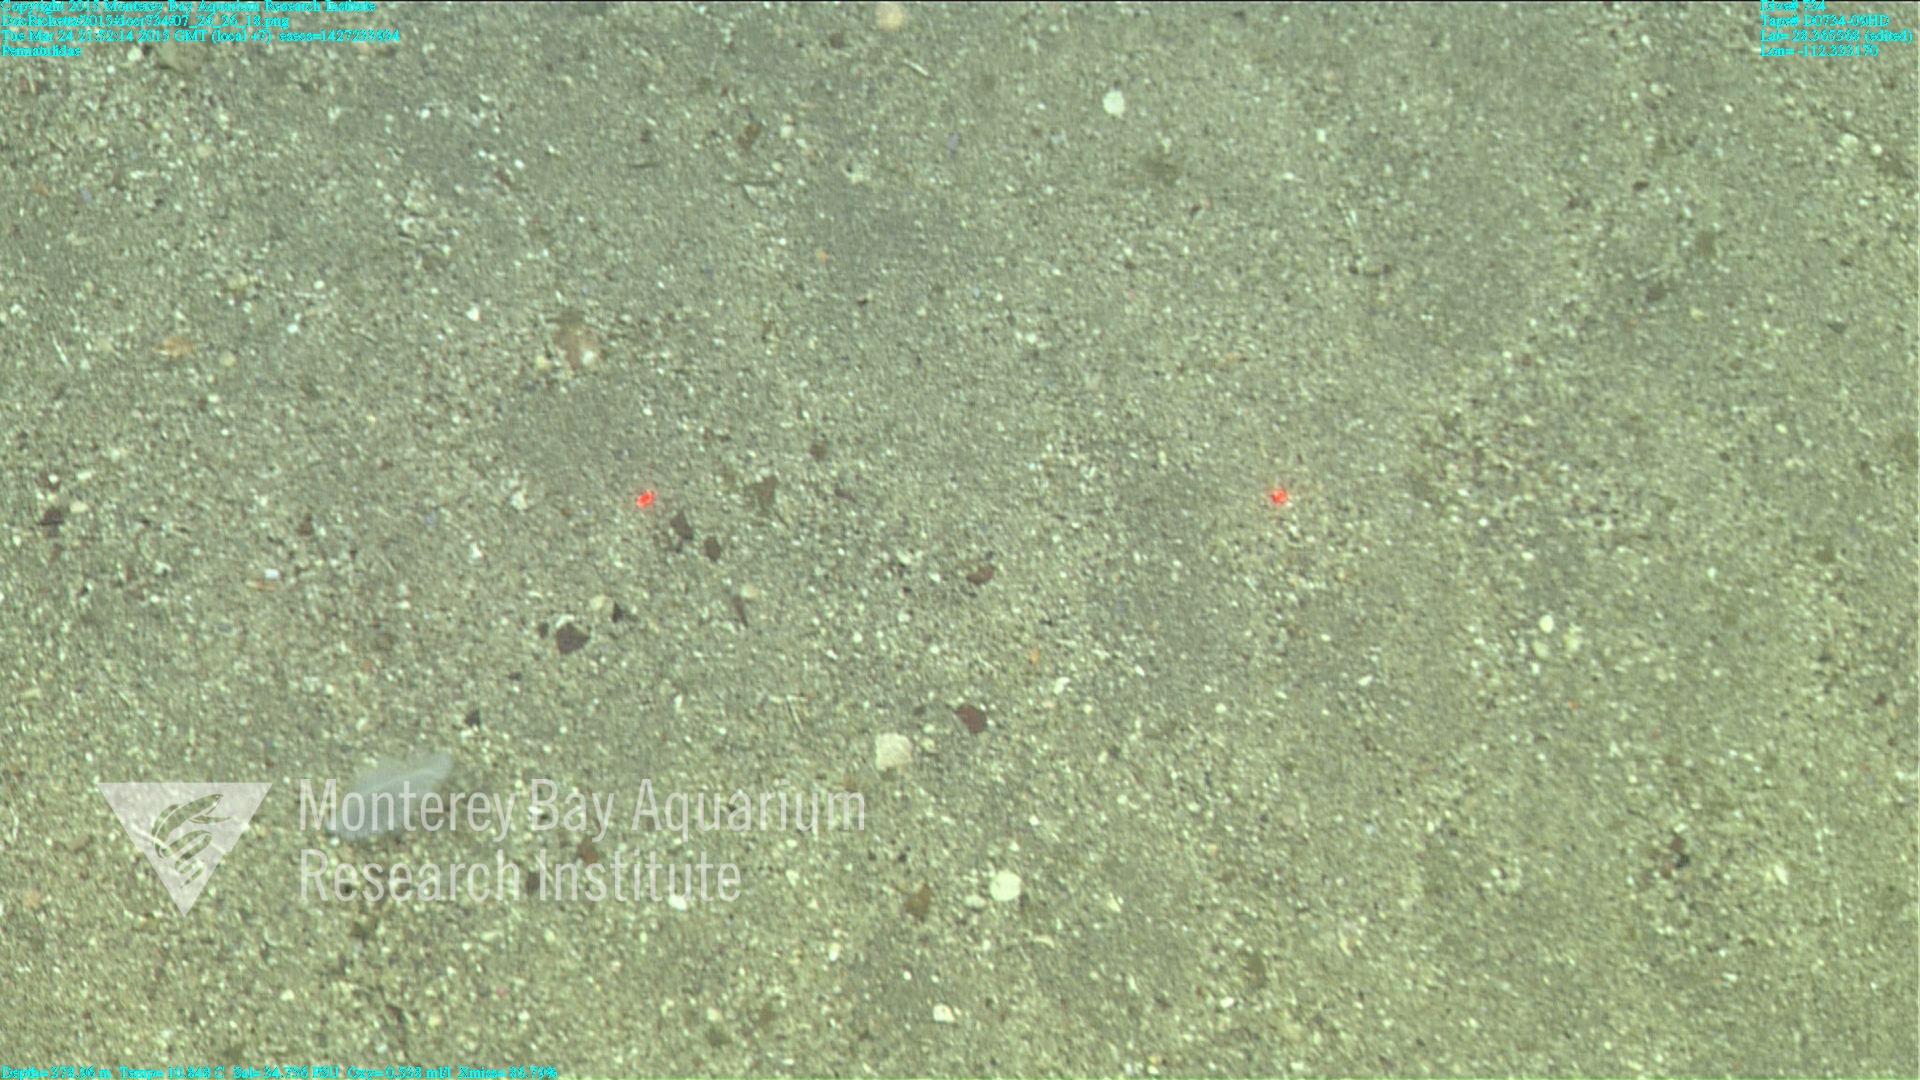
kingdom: Animalia
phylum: Cnidaria
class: Anthozoa
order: Scleralcyonacea
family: Pennatulidae
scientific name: Pennatulidae
